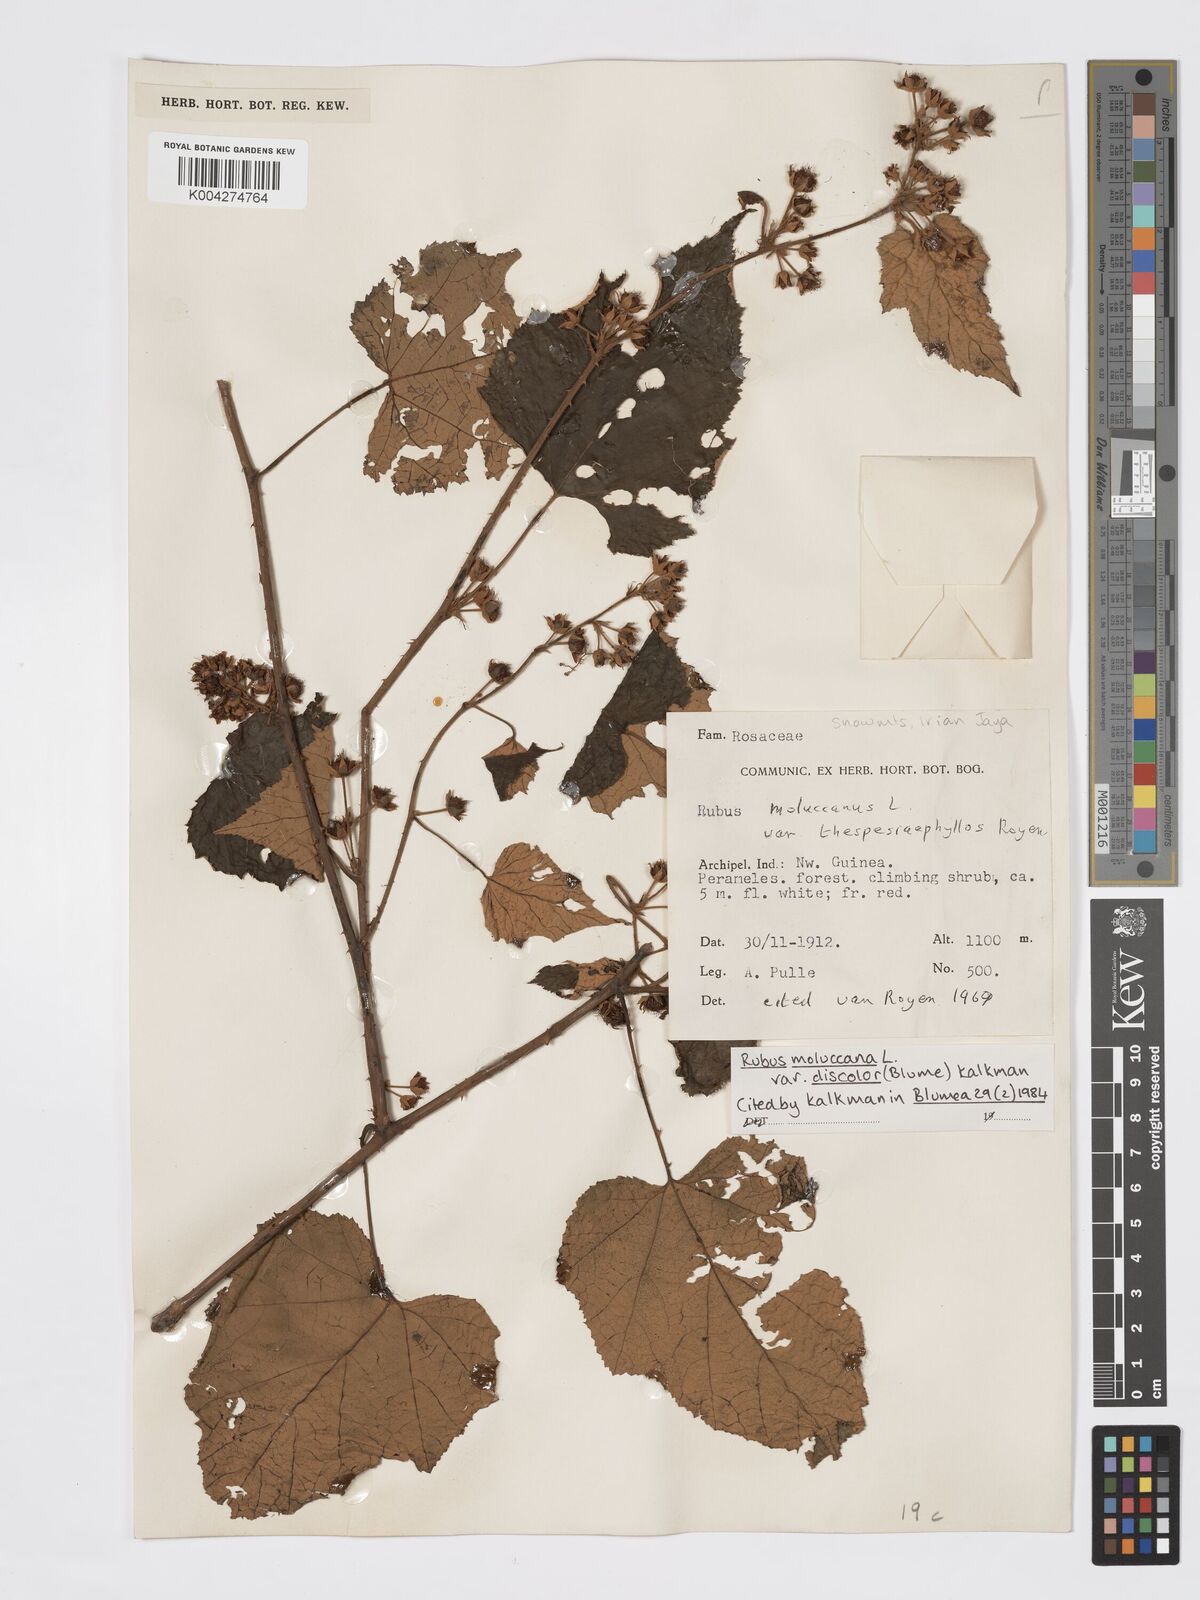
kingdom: Plantae
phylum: Tracheophyta
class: Magnoliopsida
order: Rosales
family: Rosaceae
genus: Rubus
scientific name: Rubus moluccanus
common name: Wild raspberry
